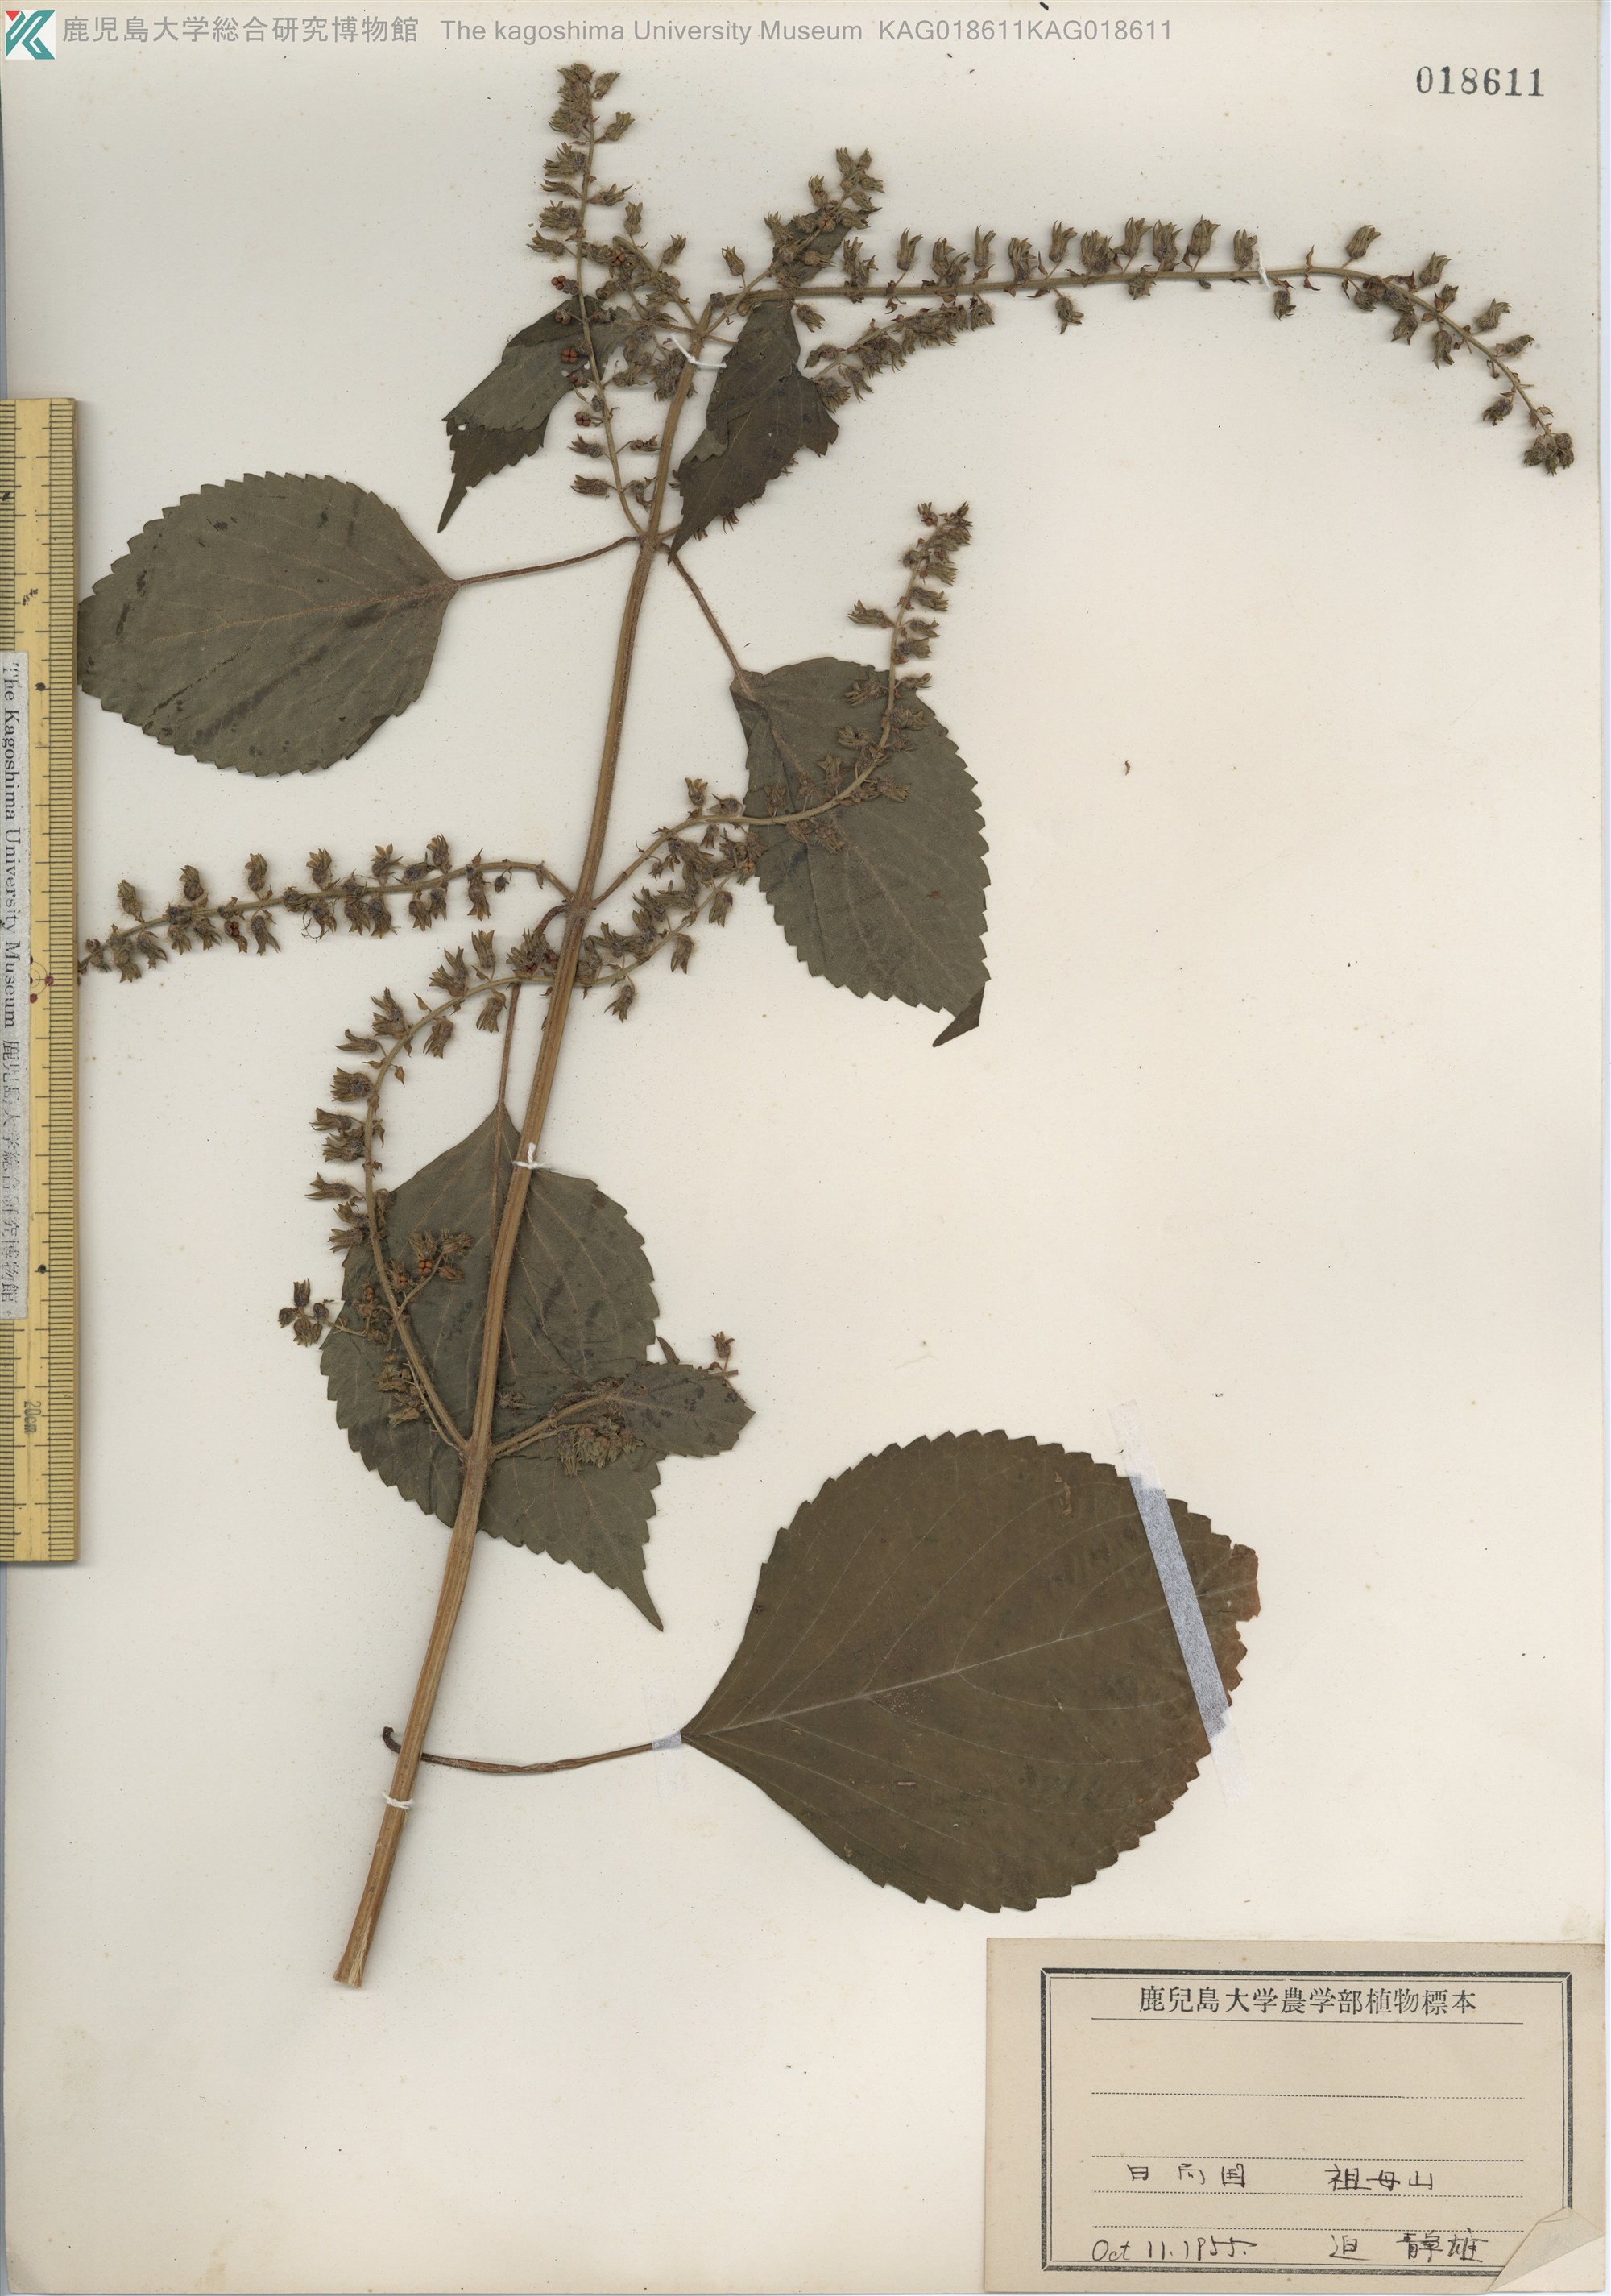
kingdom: Plantae
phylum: Tracheophyta
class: Magnoliopsida
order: Lamiales
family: Lamiaceae
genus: Perilla
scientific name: Perilla frutescens
